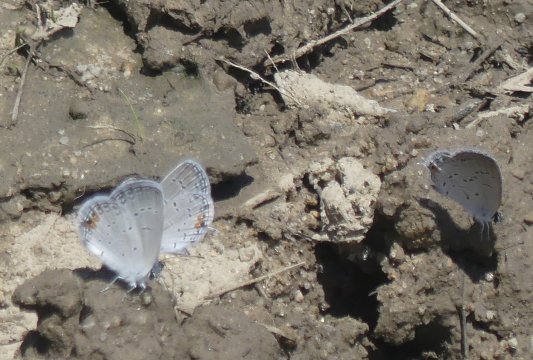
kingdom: Animalia
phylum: Arthropoda
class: Insecta
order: Lepidoptera
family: Lycaenidae
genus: Elkalyce
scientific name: Elkalyce comyntas
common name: Eastern Tailed-Blue
